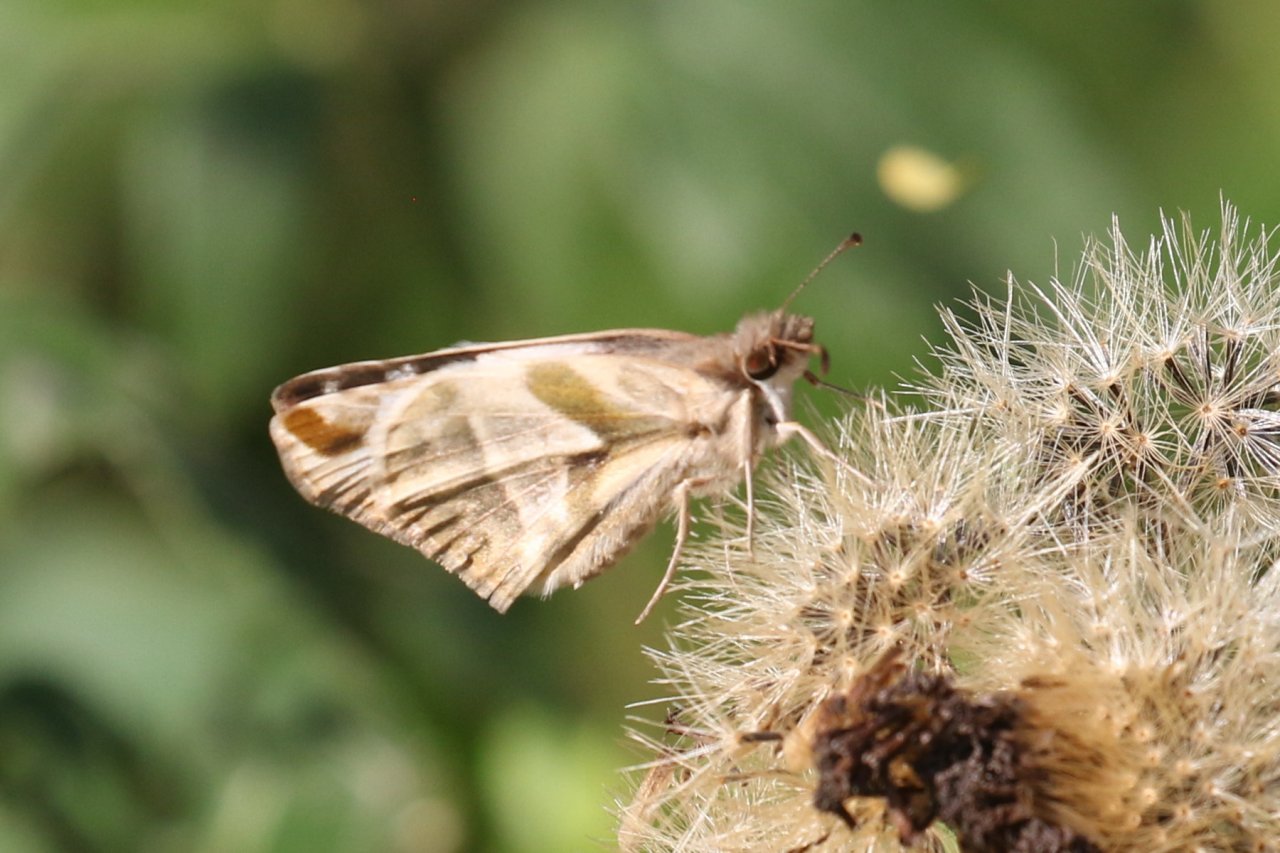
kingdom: Animalia
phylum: Arthropoda
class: Insecta
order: Lepidoptera
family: Hesperiidae
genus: Heliopetes
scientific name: Heliopetes laviana
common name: Laviana White-Skipper
